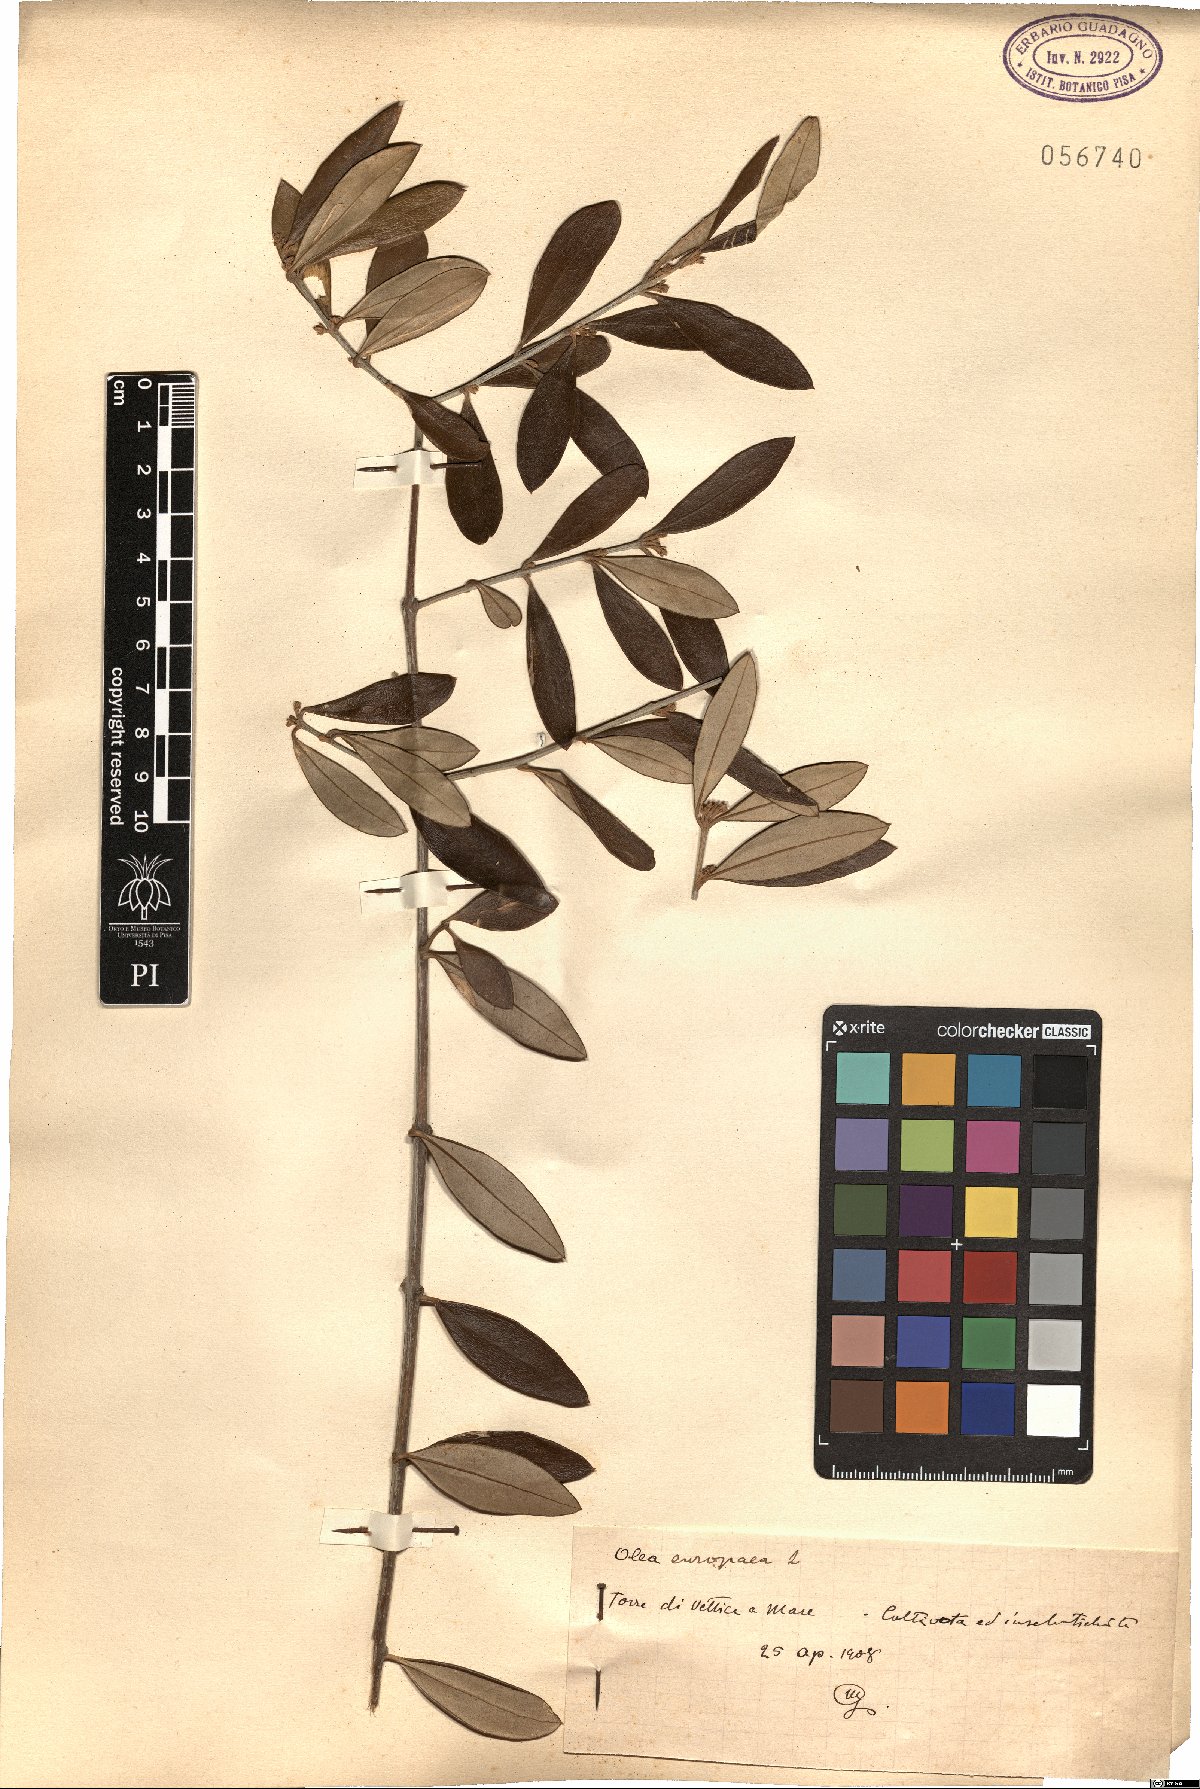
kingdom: Plantae
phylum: Tracheophyta
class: Magnoliopsida
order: Lamiales
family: Oleaceae
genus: Olea
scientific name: Olea europaea
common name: Olive
